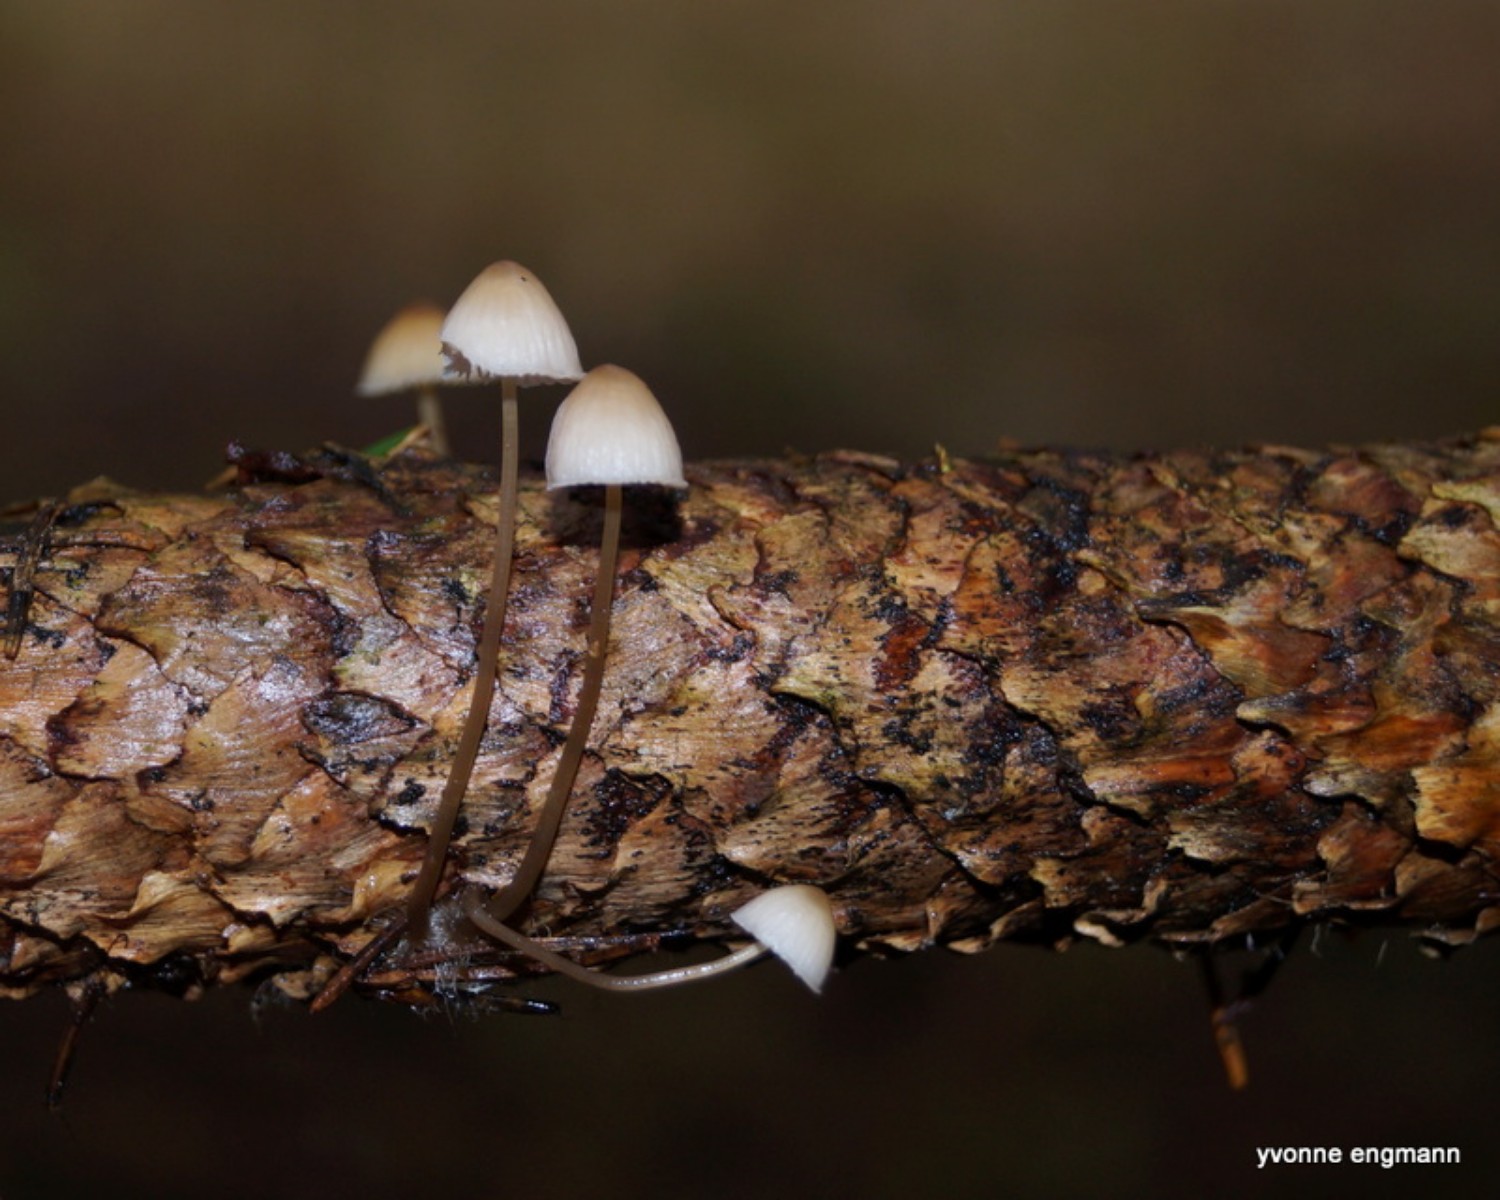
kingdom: Fungi
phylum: Basidiomycota
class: Agaricomycetes
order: Agaricales
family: Mycenaceae
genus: Mycena
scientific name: Mycena
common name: huesvamp
